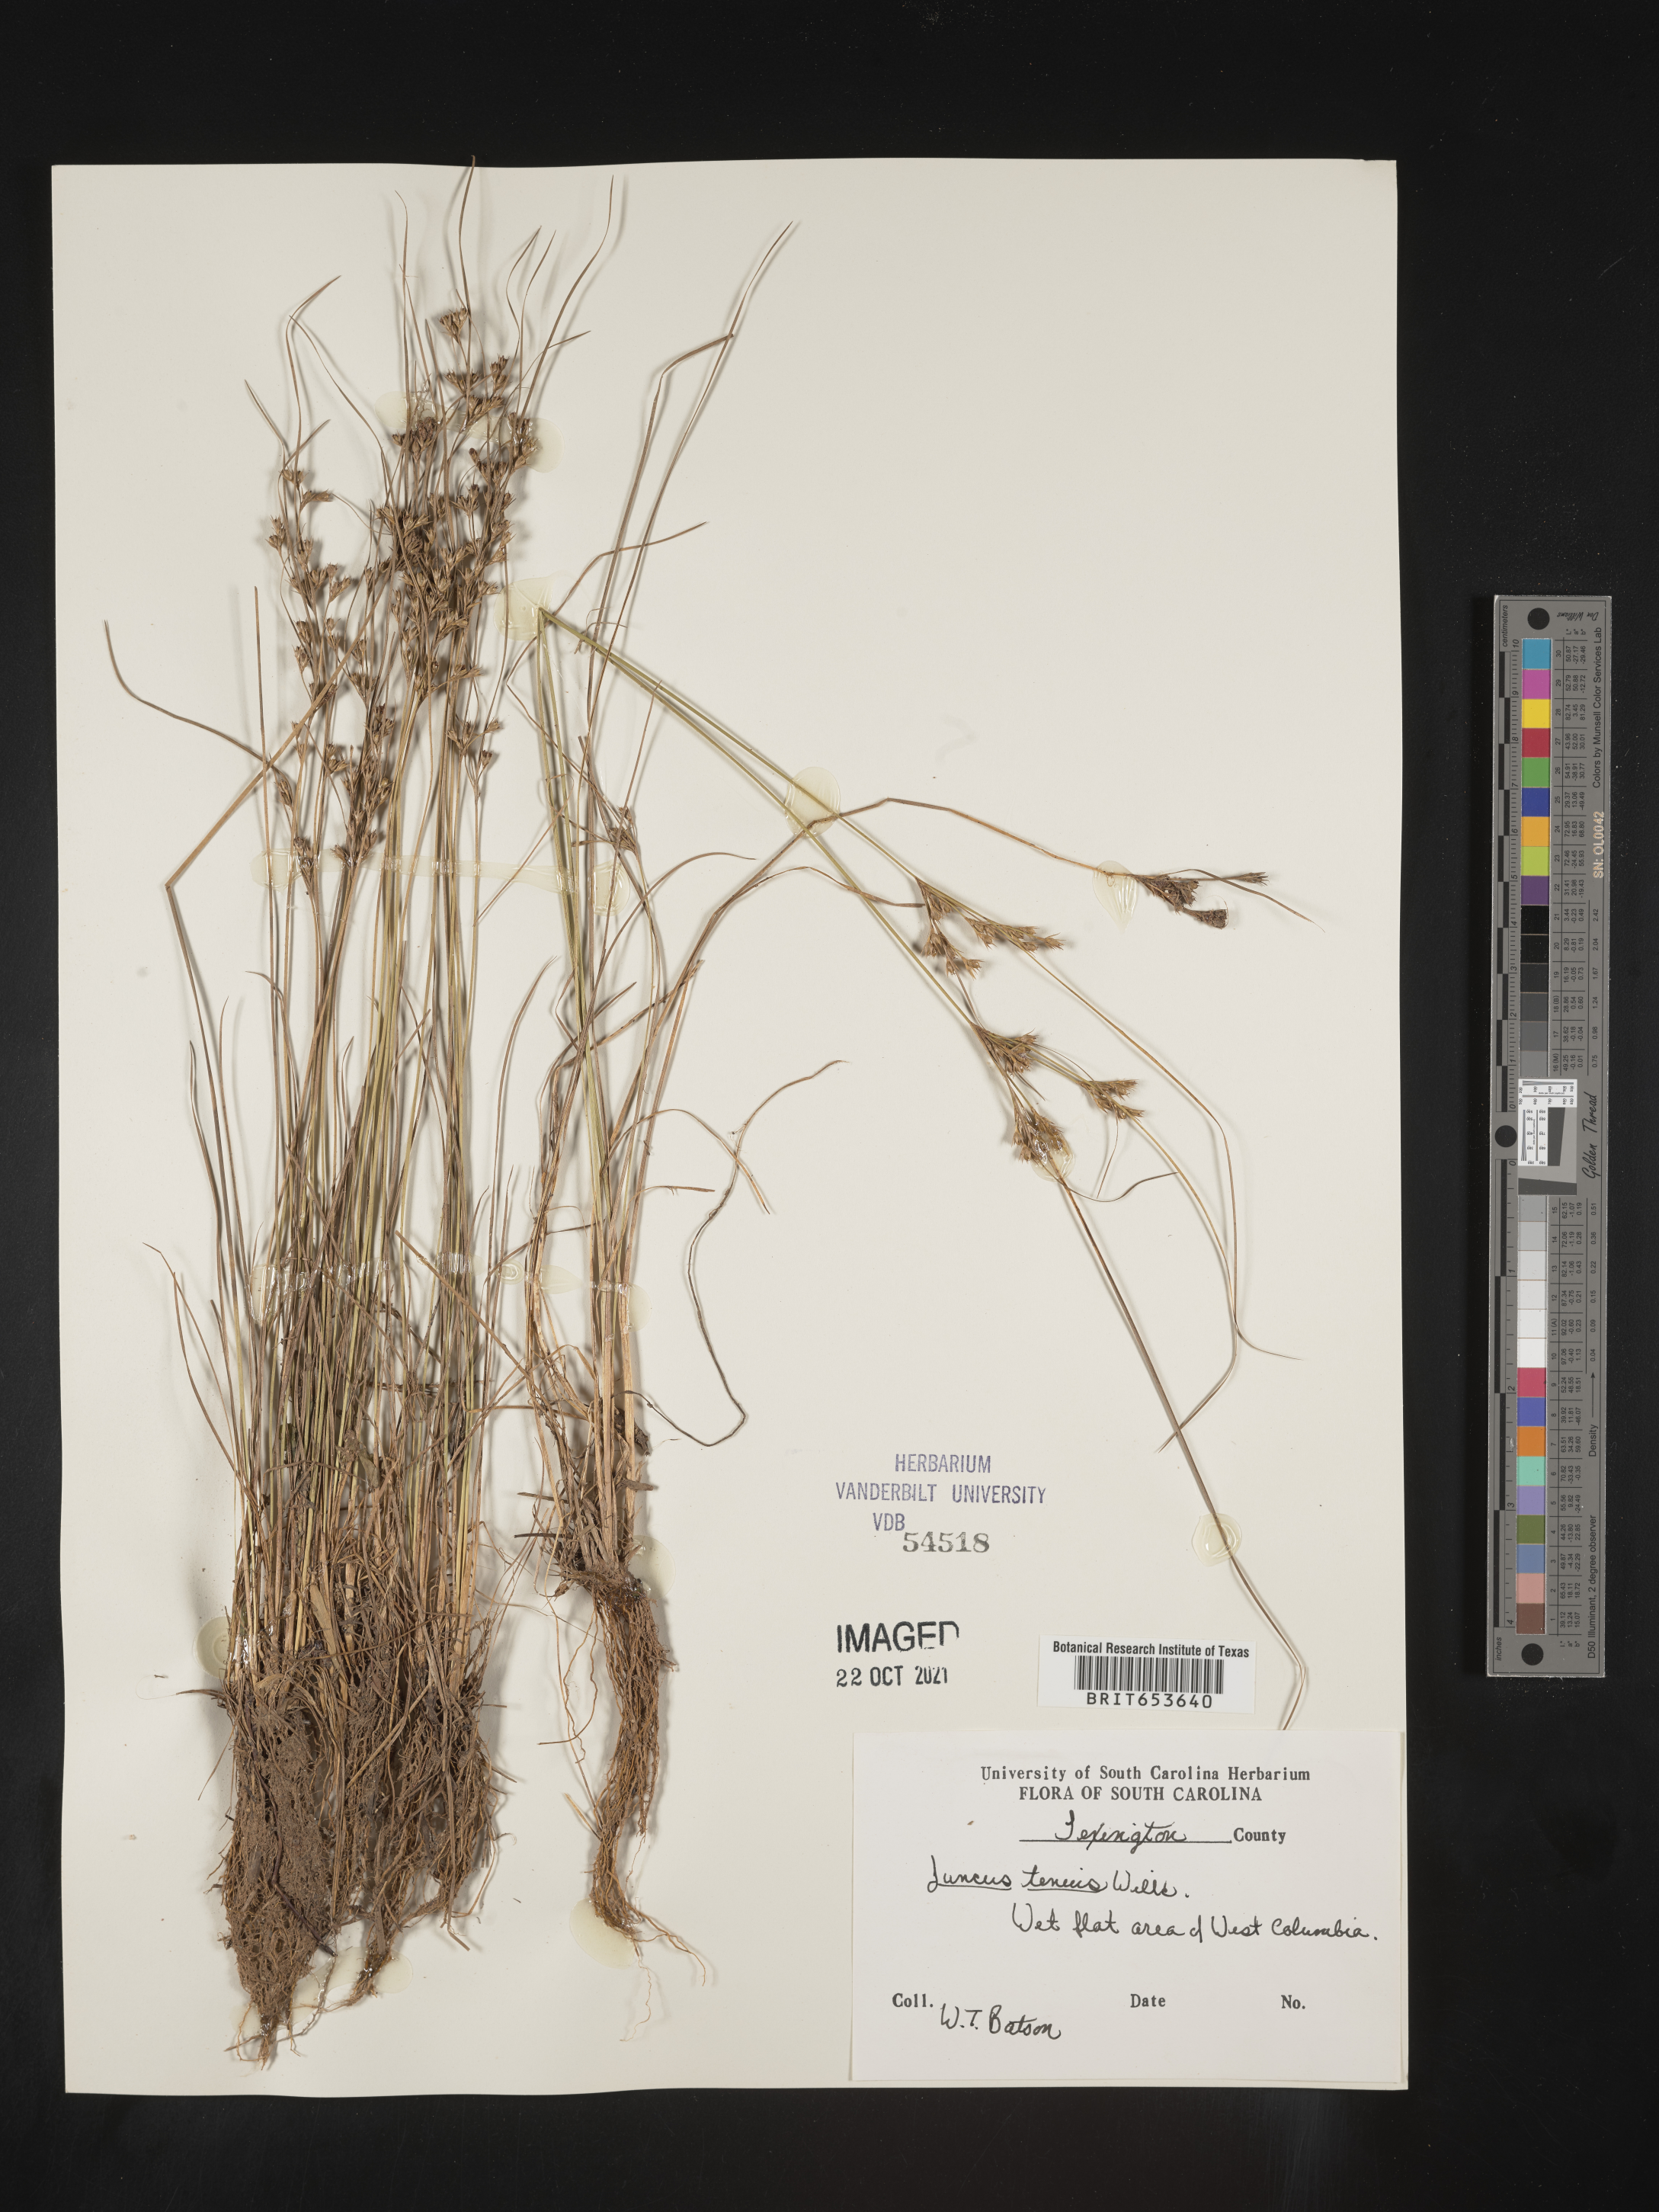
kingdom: Plantae
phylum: Tracheophyta
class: Liliopsida
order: Poales
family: Juncaceae
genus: Juncus
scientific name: Juncus tenuis
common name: Slender rush
